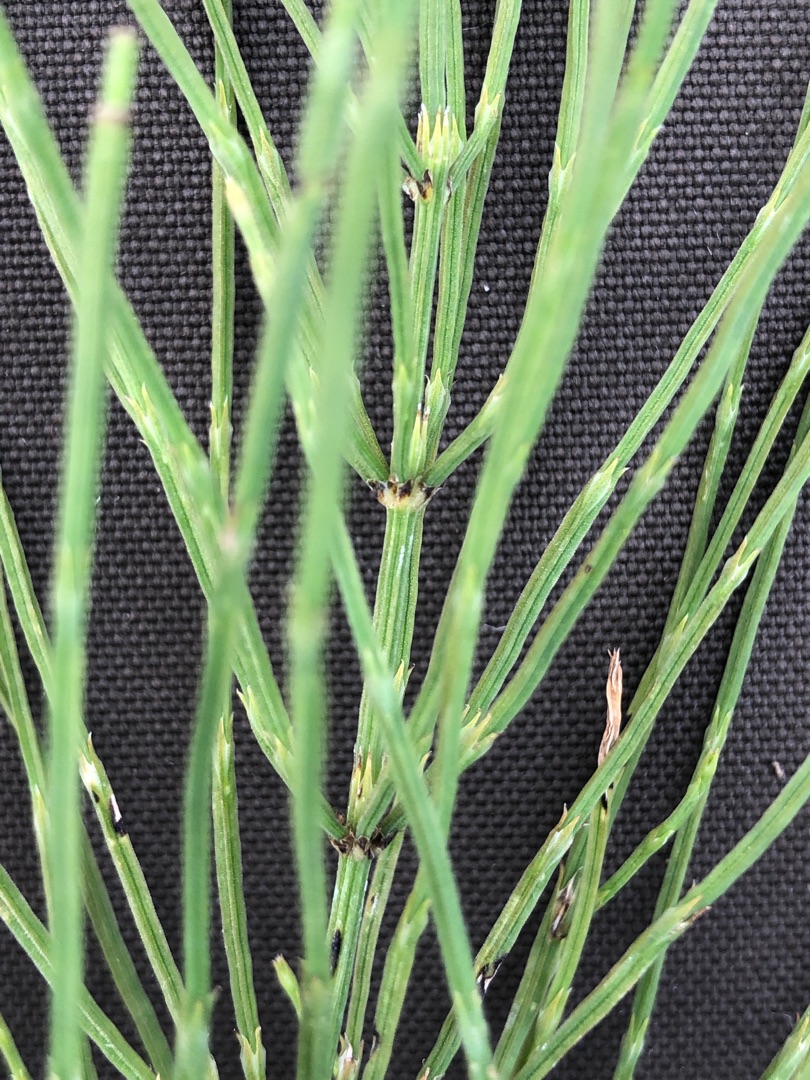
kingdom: Plantae
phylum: Tracheophyta
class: Polypodiopsida
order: Equisetales
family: Equisetaceae
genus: Equisetum
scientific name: Equisetum arvense
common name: Ager-padderok
